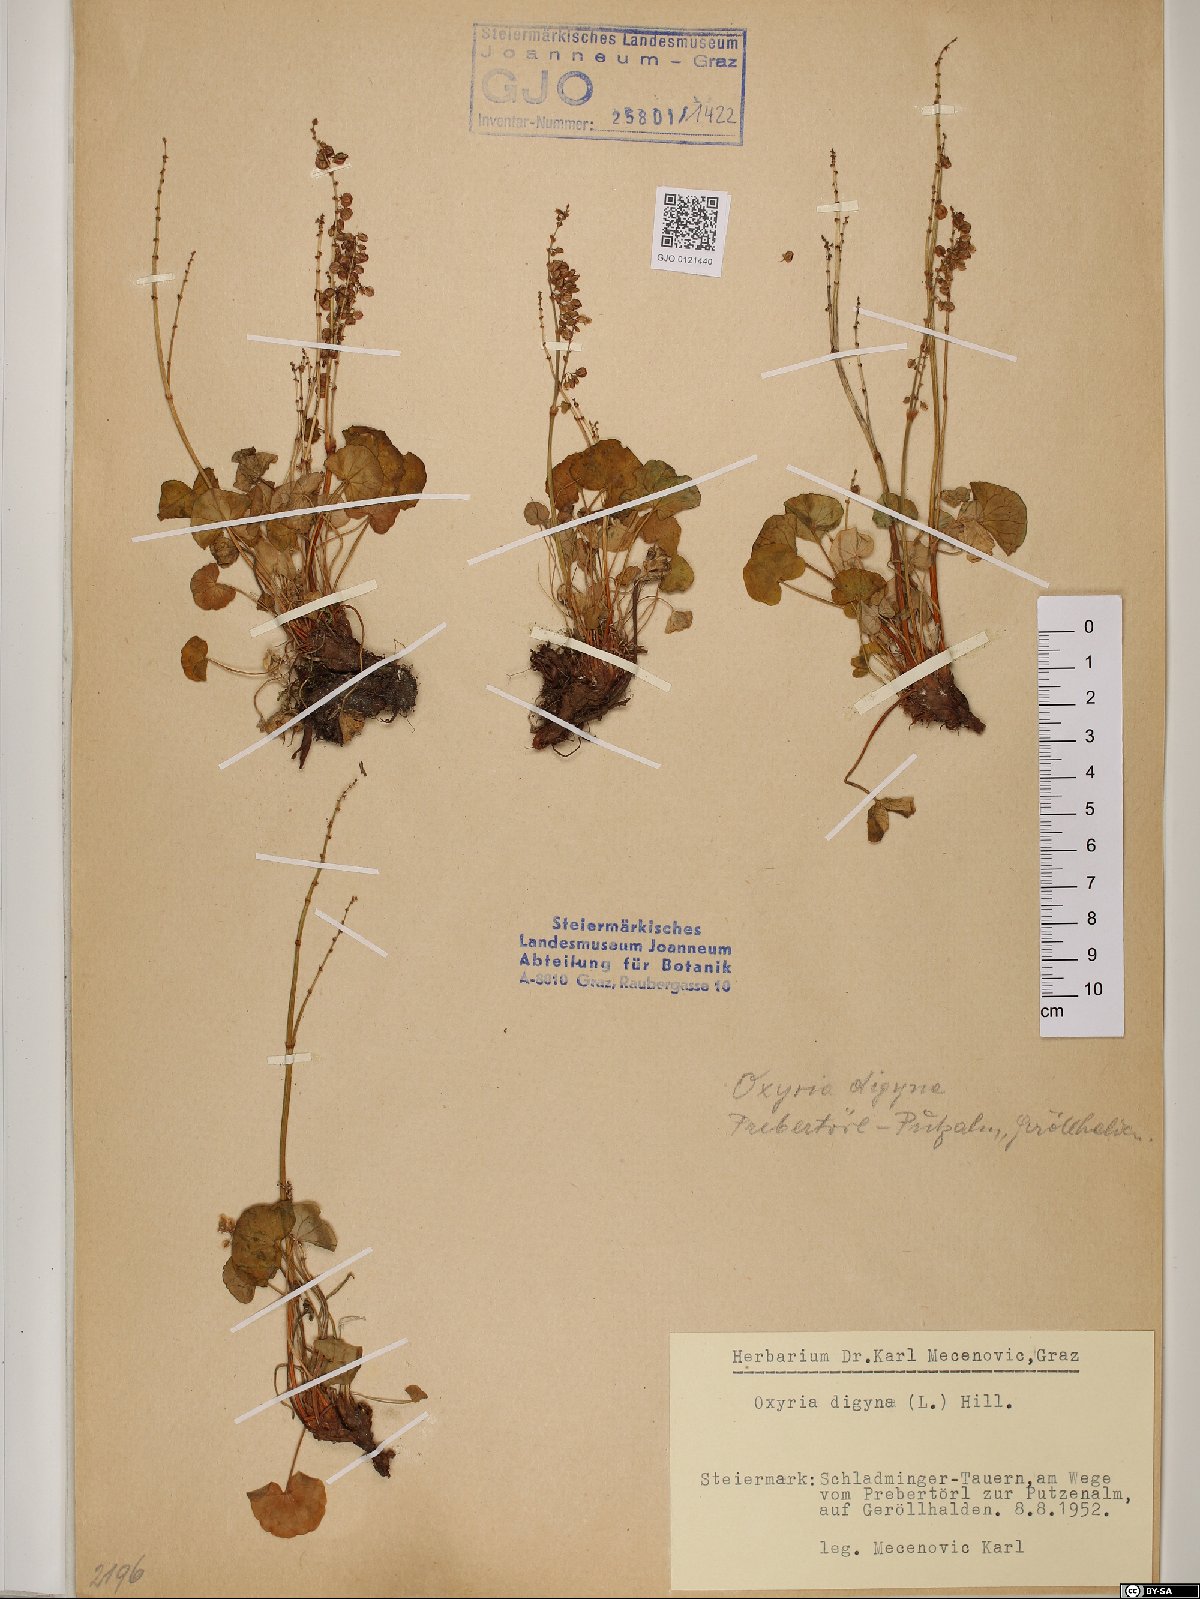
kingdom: Plantae
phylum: Tracheophyta
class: Magnoliopsida
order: Caryophyllales
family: Polygonaceae
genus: Oxyria
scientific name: Oxyria digyna
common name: Alpine mountain-sorrel
